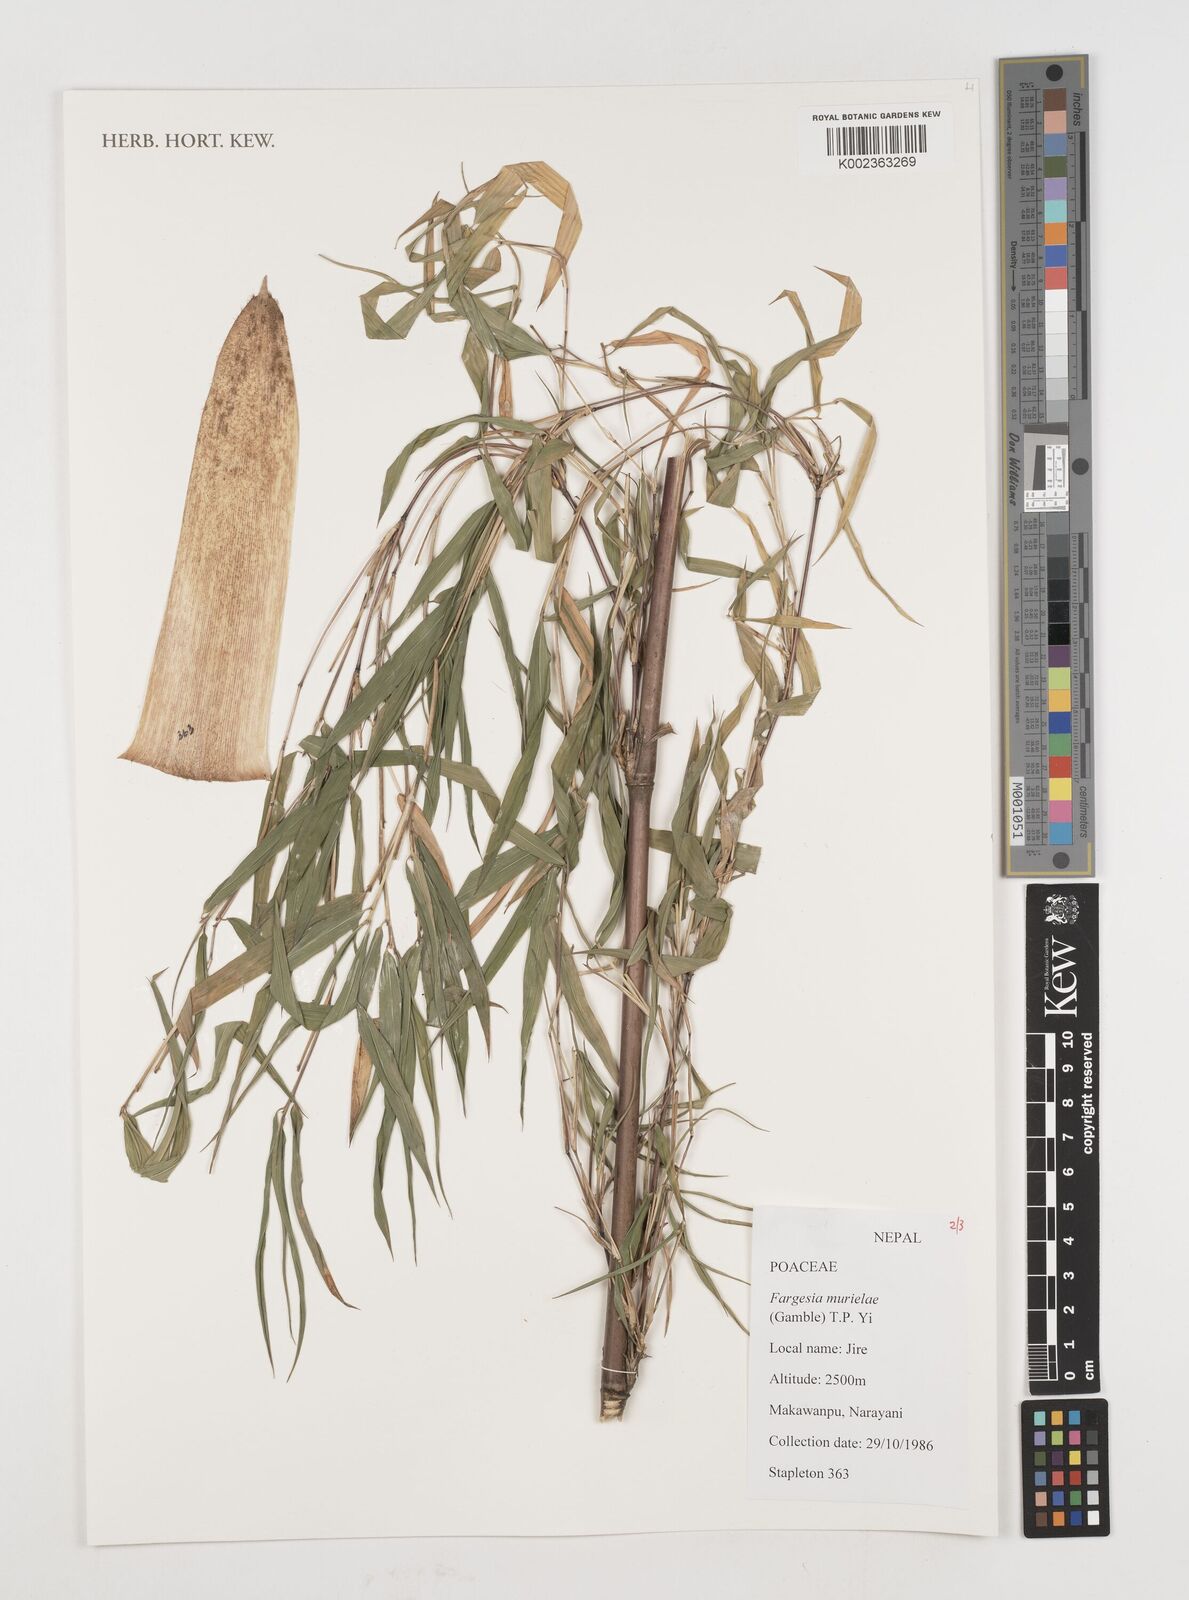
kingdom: Plantae
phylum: Tracheophyta
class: Liliopsida
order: Poales
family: Poaceae
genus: Fargesia
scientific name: Fargesia murielae
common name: Umbrella bamboo
